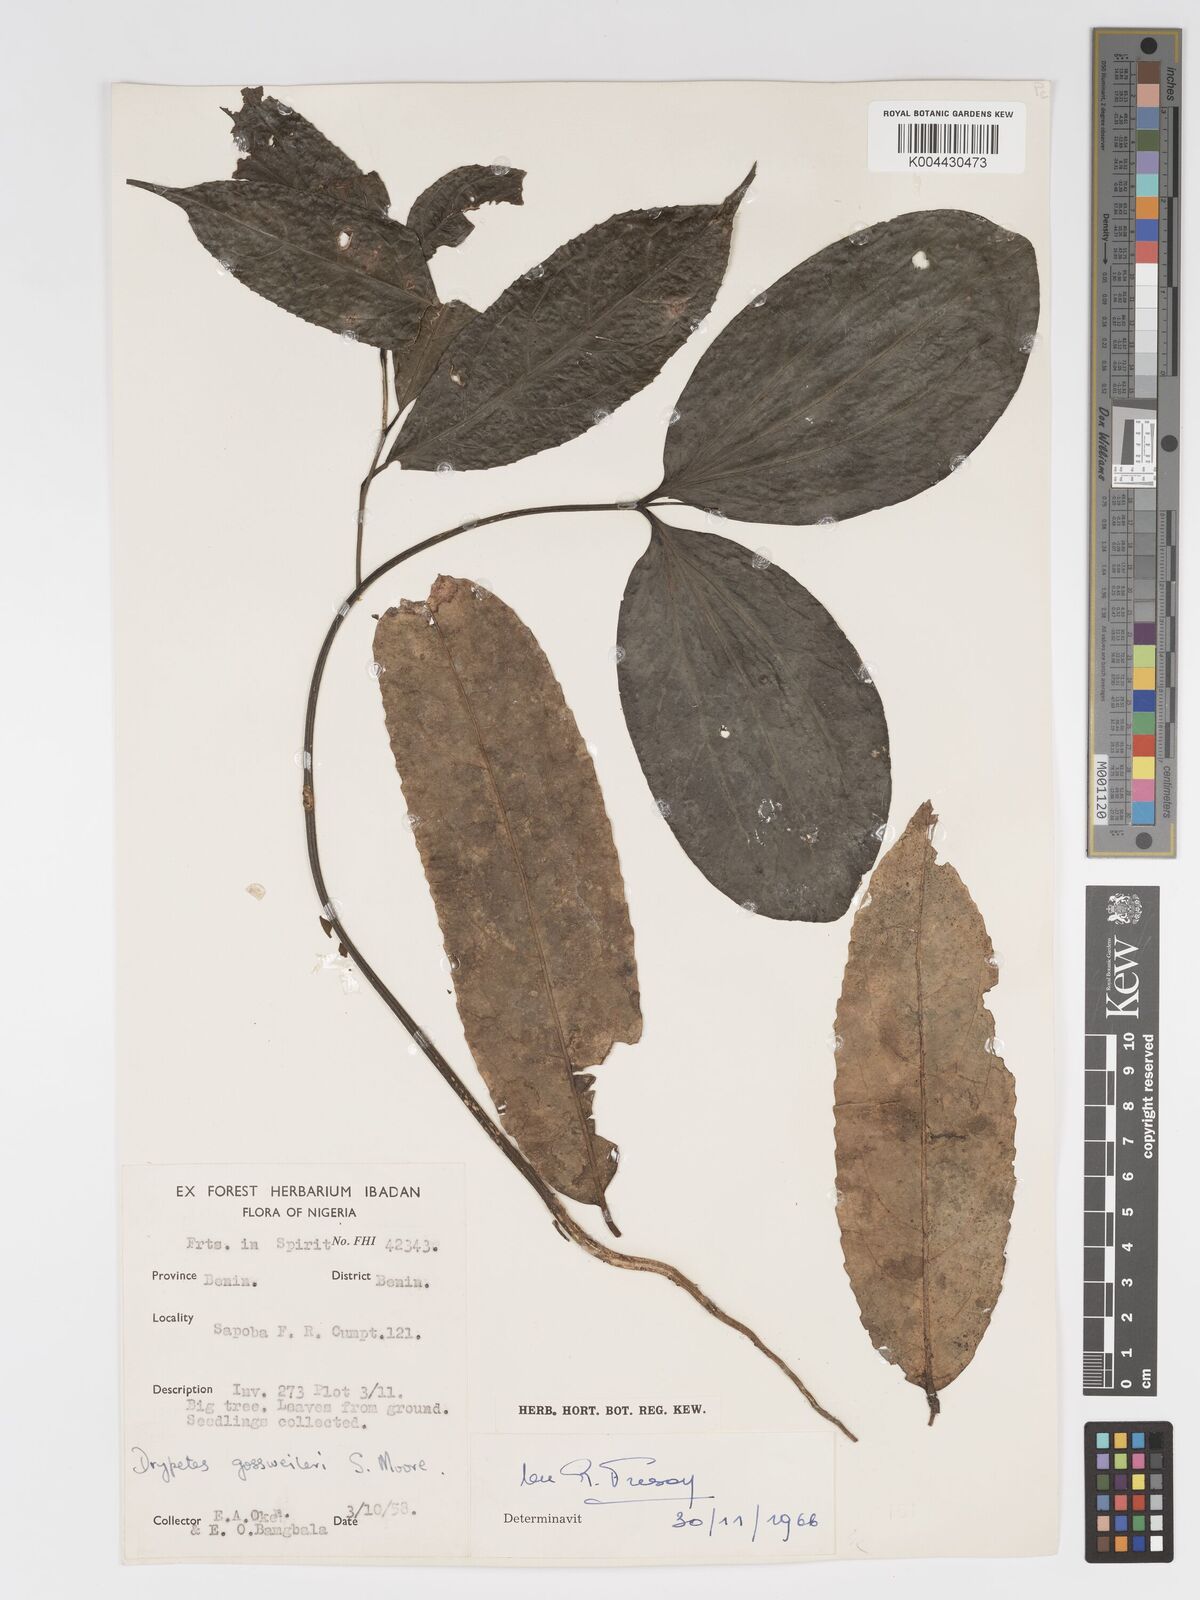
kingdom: Plantae
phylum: Tracheophyta
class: Magnoliopsida
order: Malpighiales
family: Putranjivaceae
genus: Drypetes
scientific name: Drypetes gossweileri
